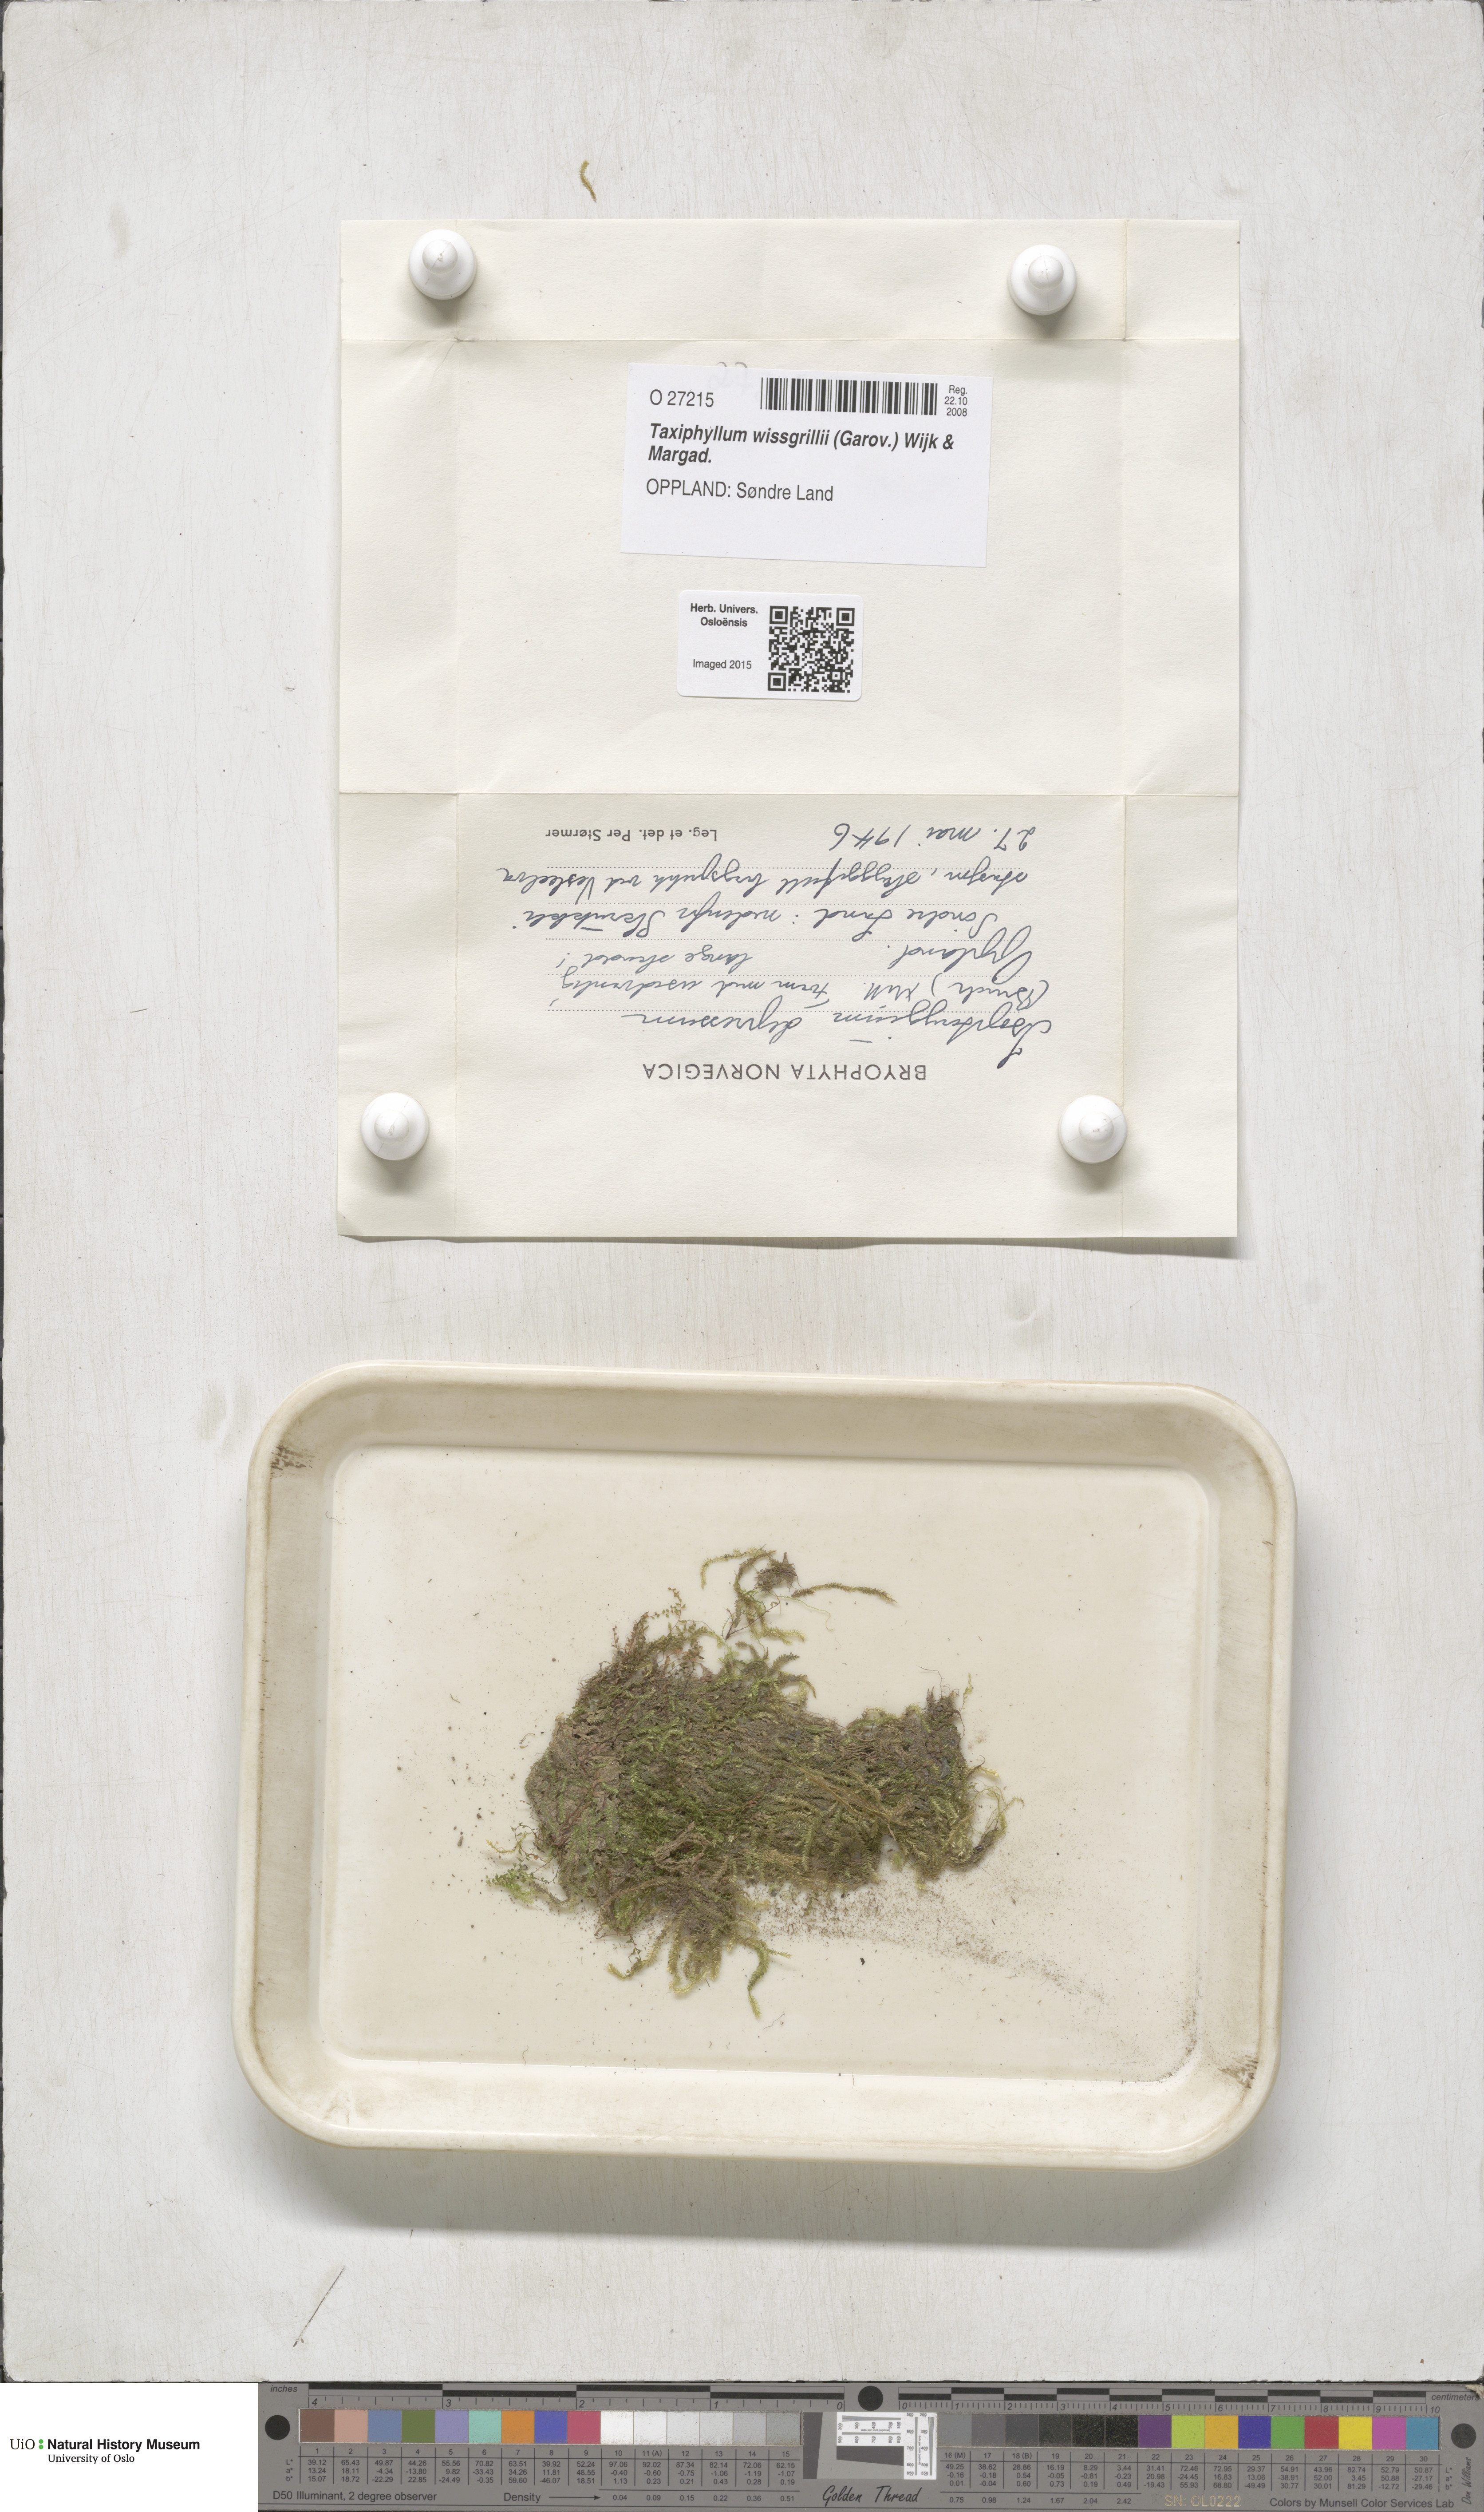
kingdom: Plantae
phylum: Bryophyta
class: Bryopsida
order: Hypnales
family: Taxiphyllaceae
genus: Taxiphyllum
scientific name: Taxiphyllum wissgrillii
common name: Depressed feather-moss
